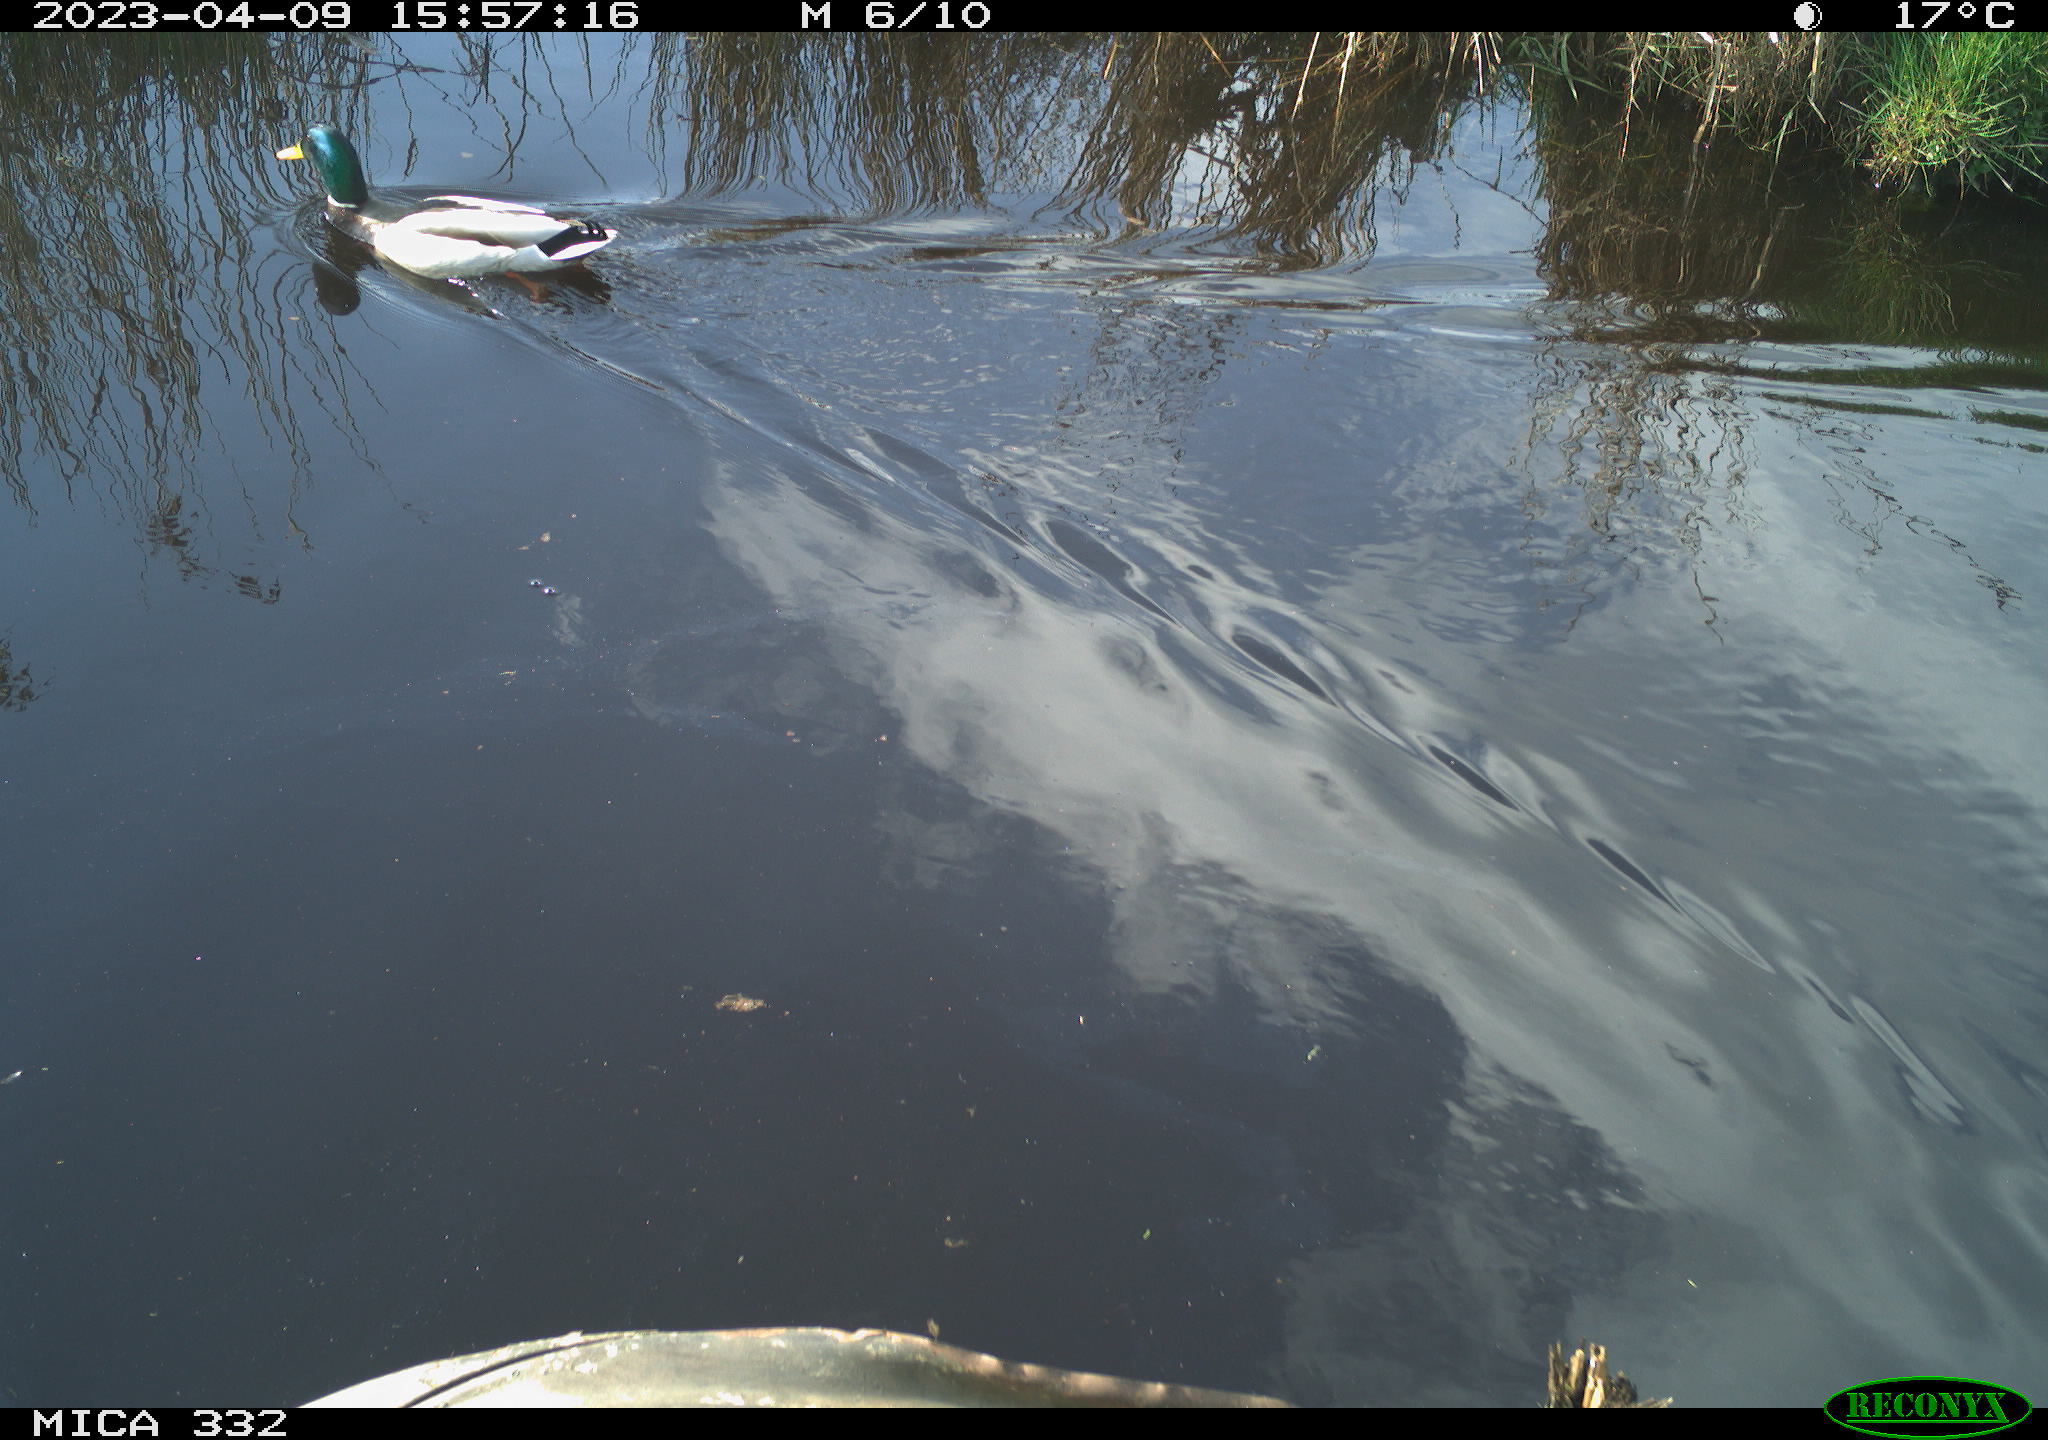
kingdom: Animalia
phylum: Chordata
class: Aves
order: Anseriformes
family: Anatidae
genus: Anas
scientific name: Anas
